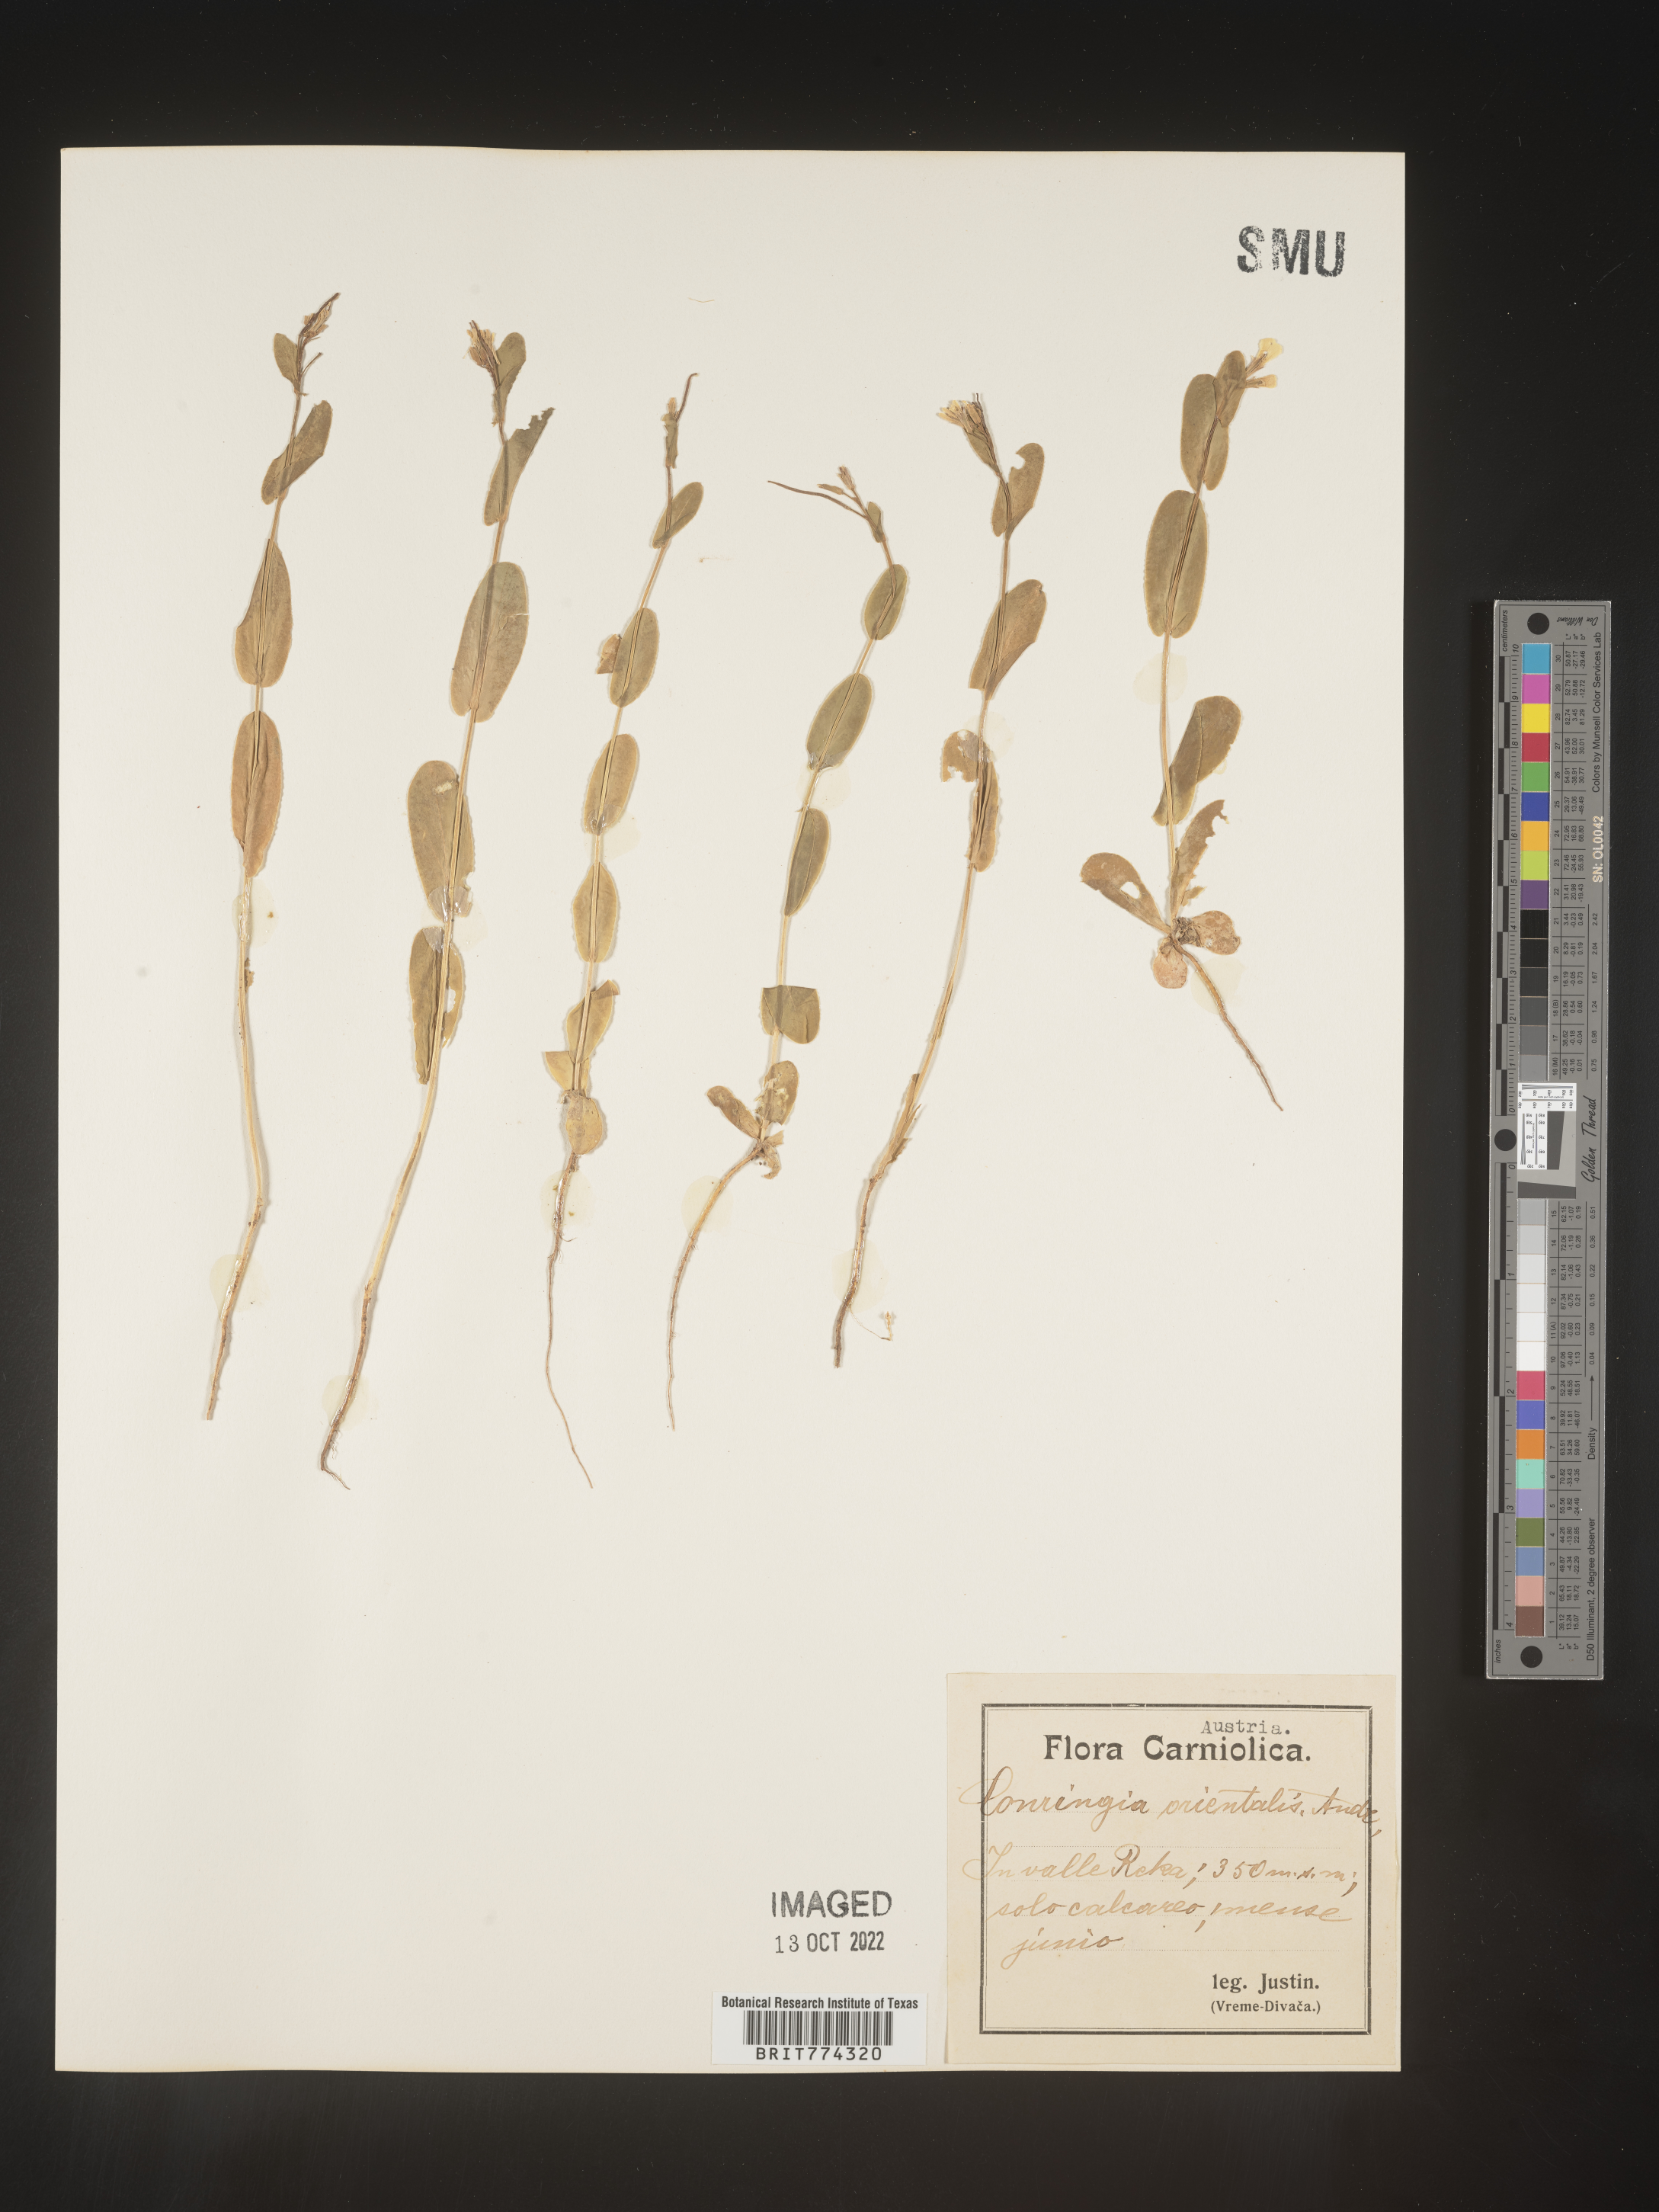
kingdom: Plantae
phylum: Tracheophyta
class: Magnoliopsida
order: Brassicales
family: Brassicaceae
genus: Conringia
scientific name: Conringia
